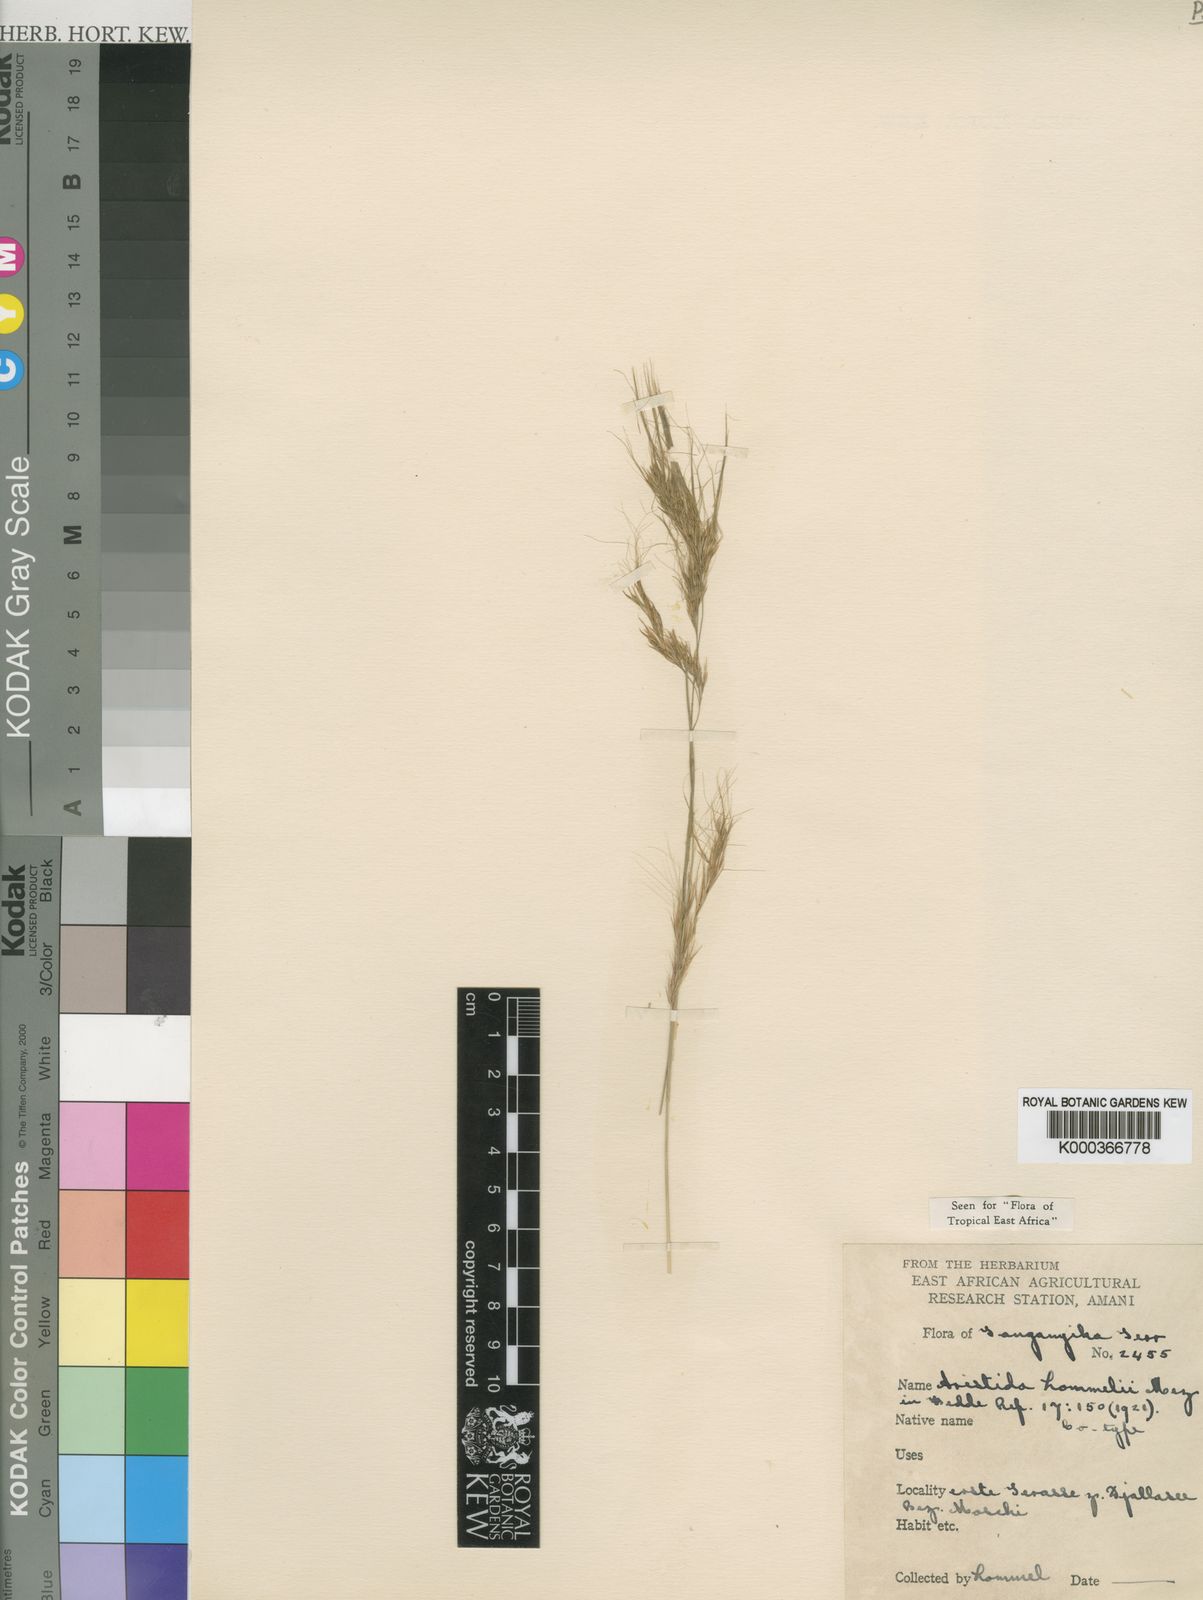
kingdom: Plantae
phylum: Tracheophyta
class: Liliopsida
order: Poales
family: Poaceae
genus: Aristida
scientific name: Aristida barbicollis
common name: Spreading prickle grass
